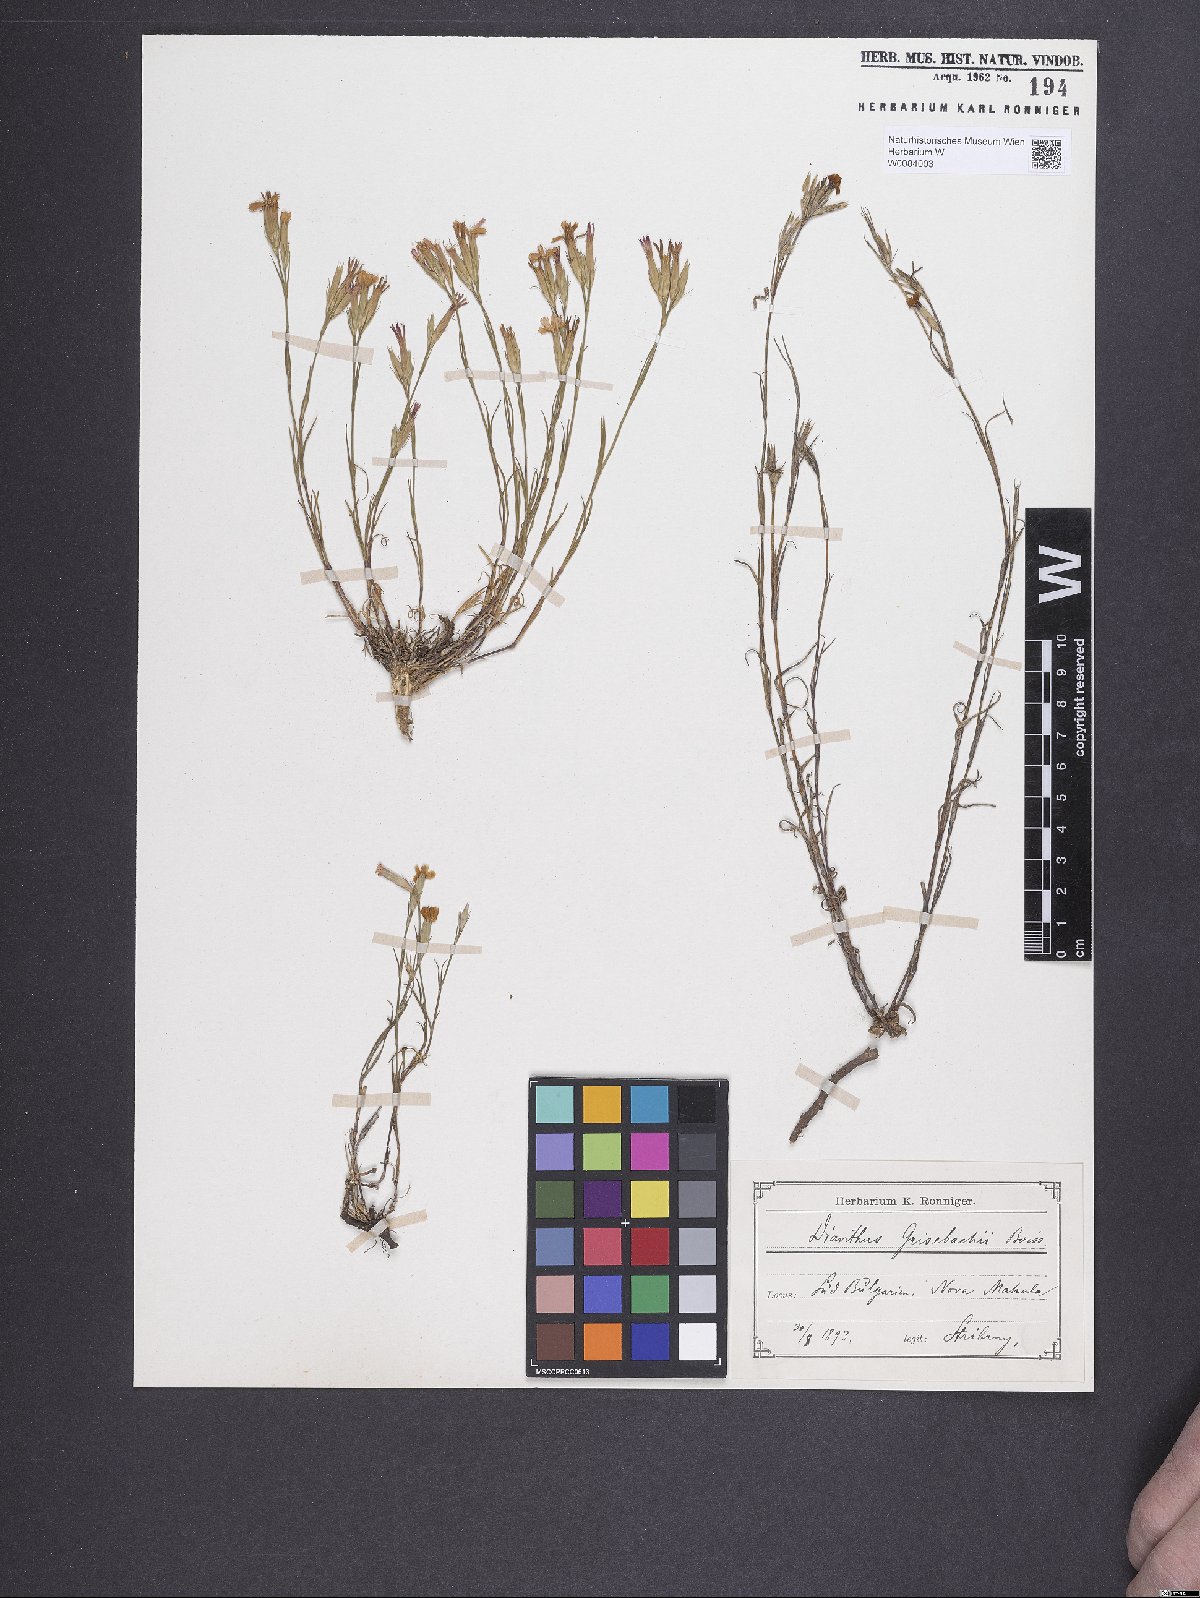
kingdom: Plantae
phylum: Tracheophyta
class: Magnoliopsida
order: Caryophyllales
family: Caryophyllaceae
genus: Dianthus
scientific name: Dianthus viscidus
